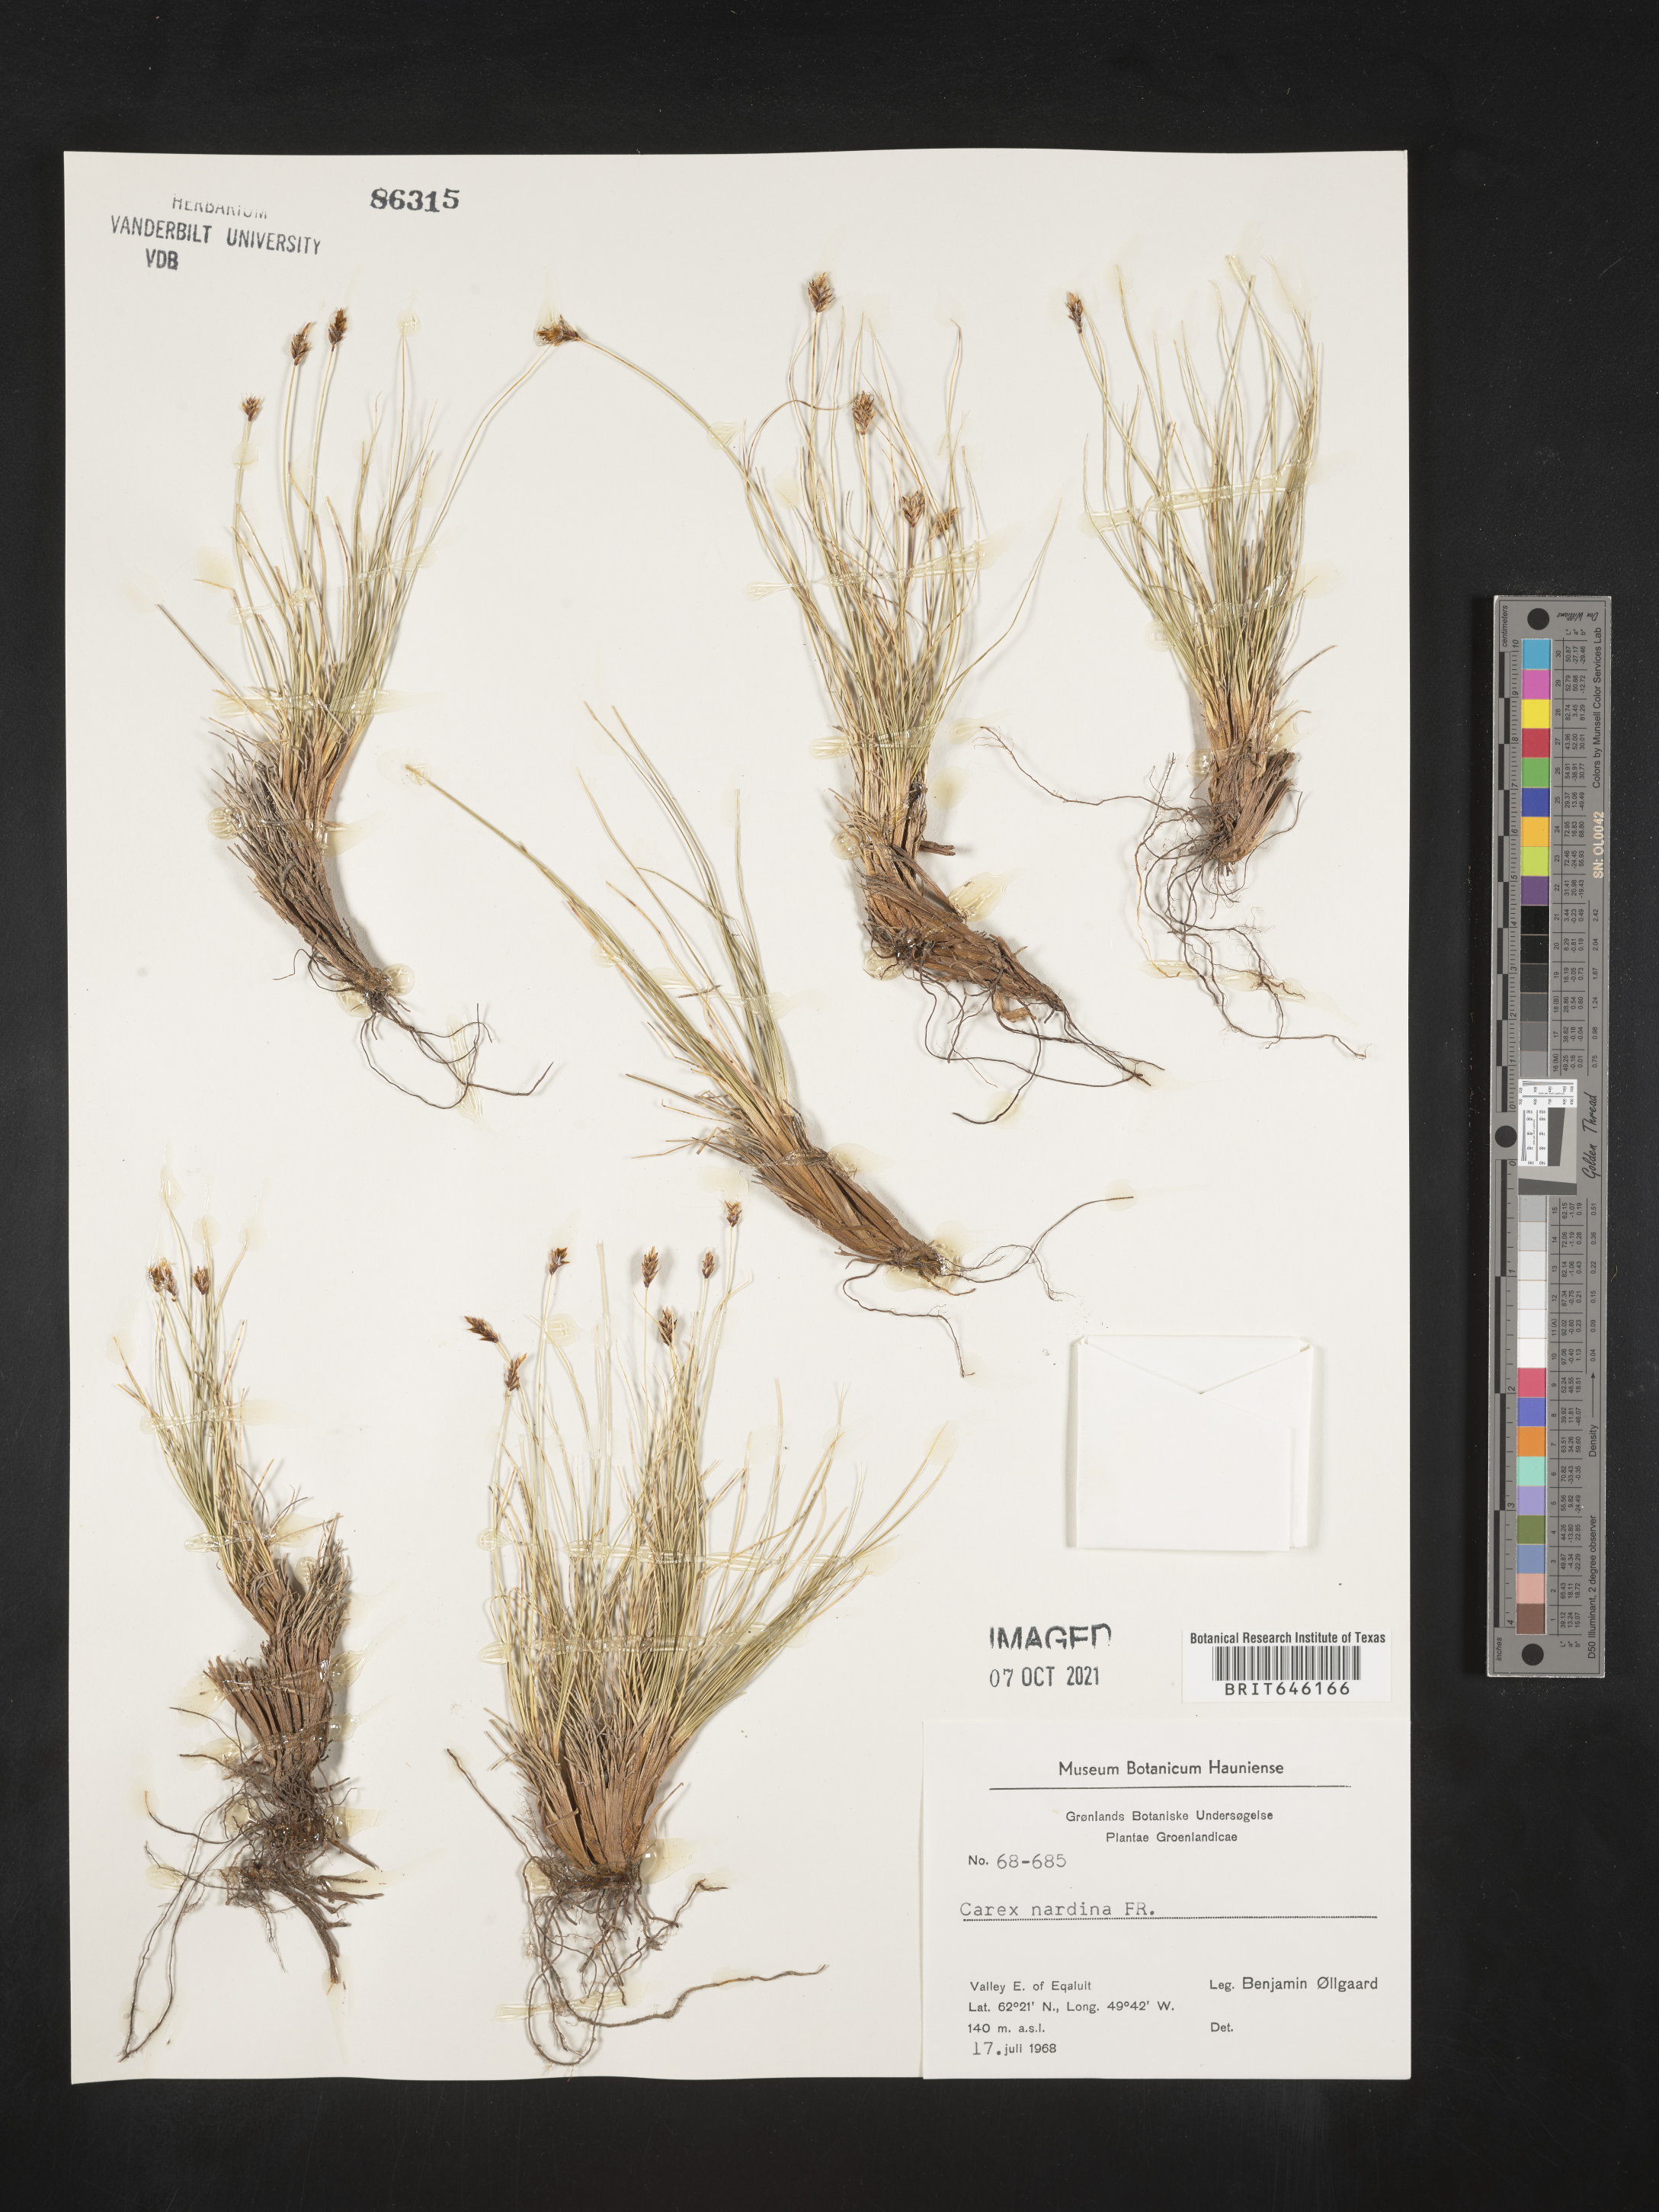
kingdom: Plantae
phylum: Tracheophyta
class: Liliopsida
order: Poales
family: Cyperaceae
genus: Carex
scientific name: Carex nardina
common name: Nard sedge
